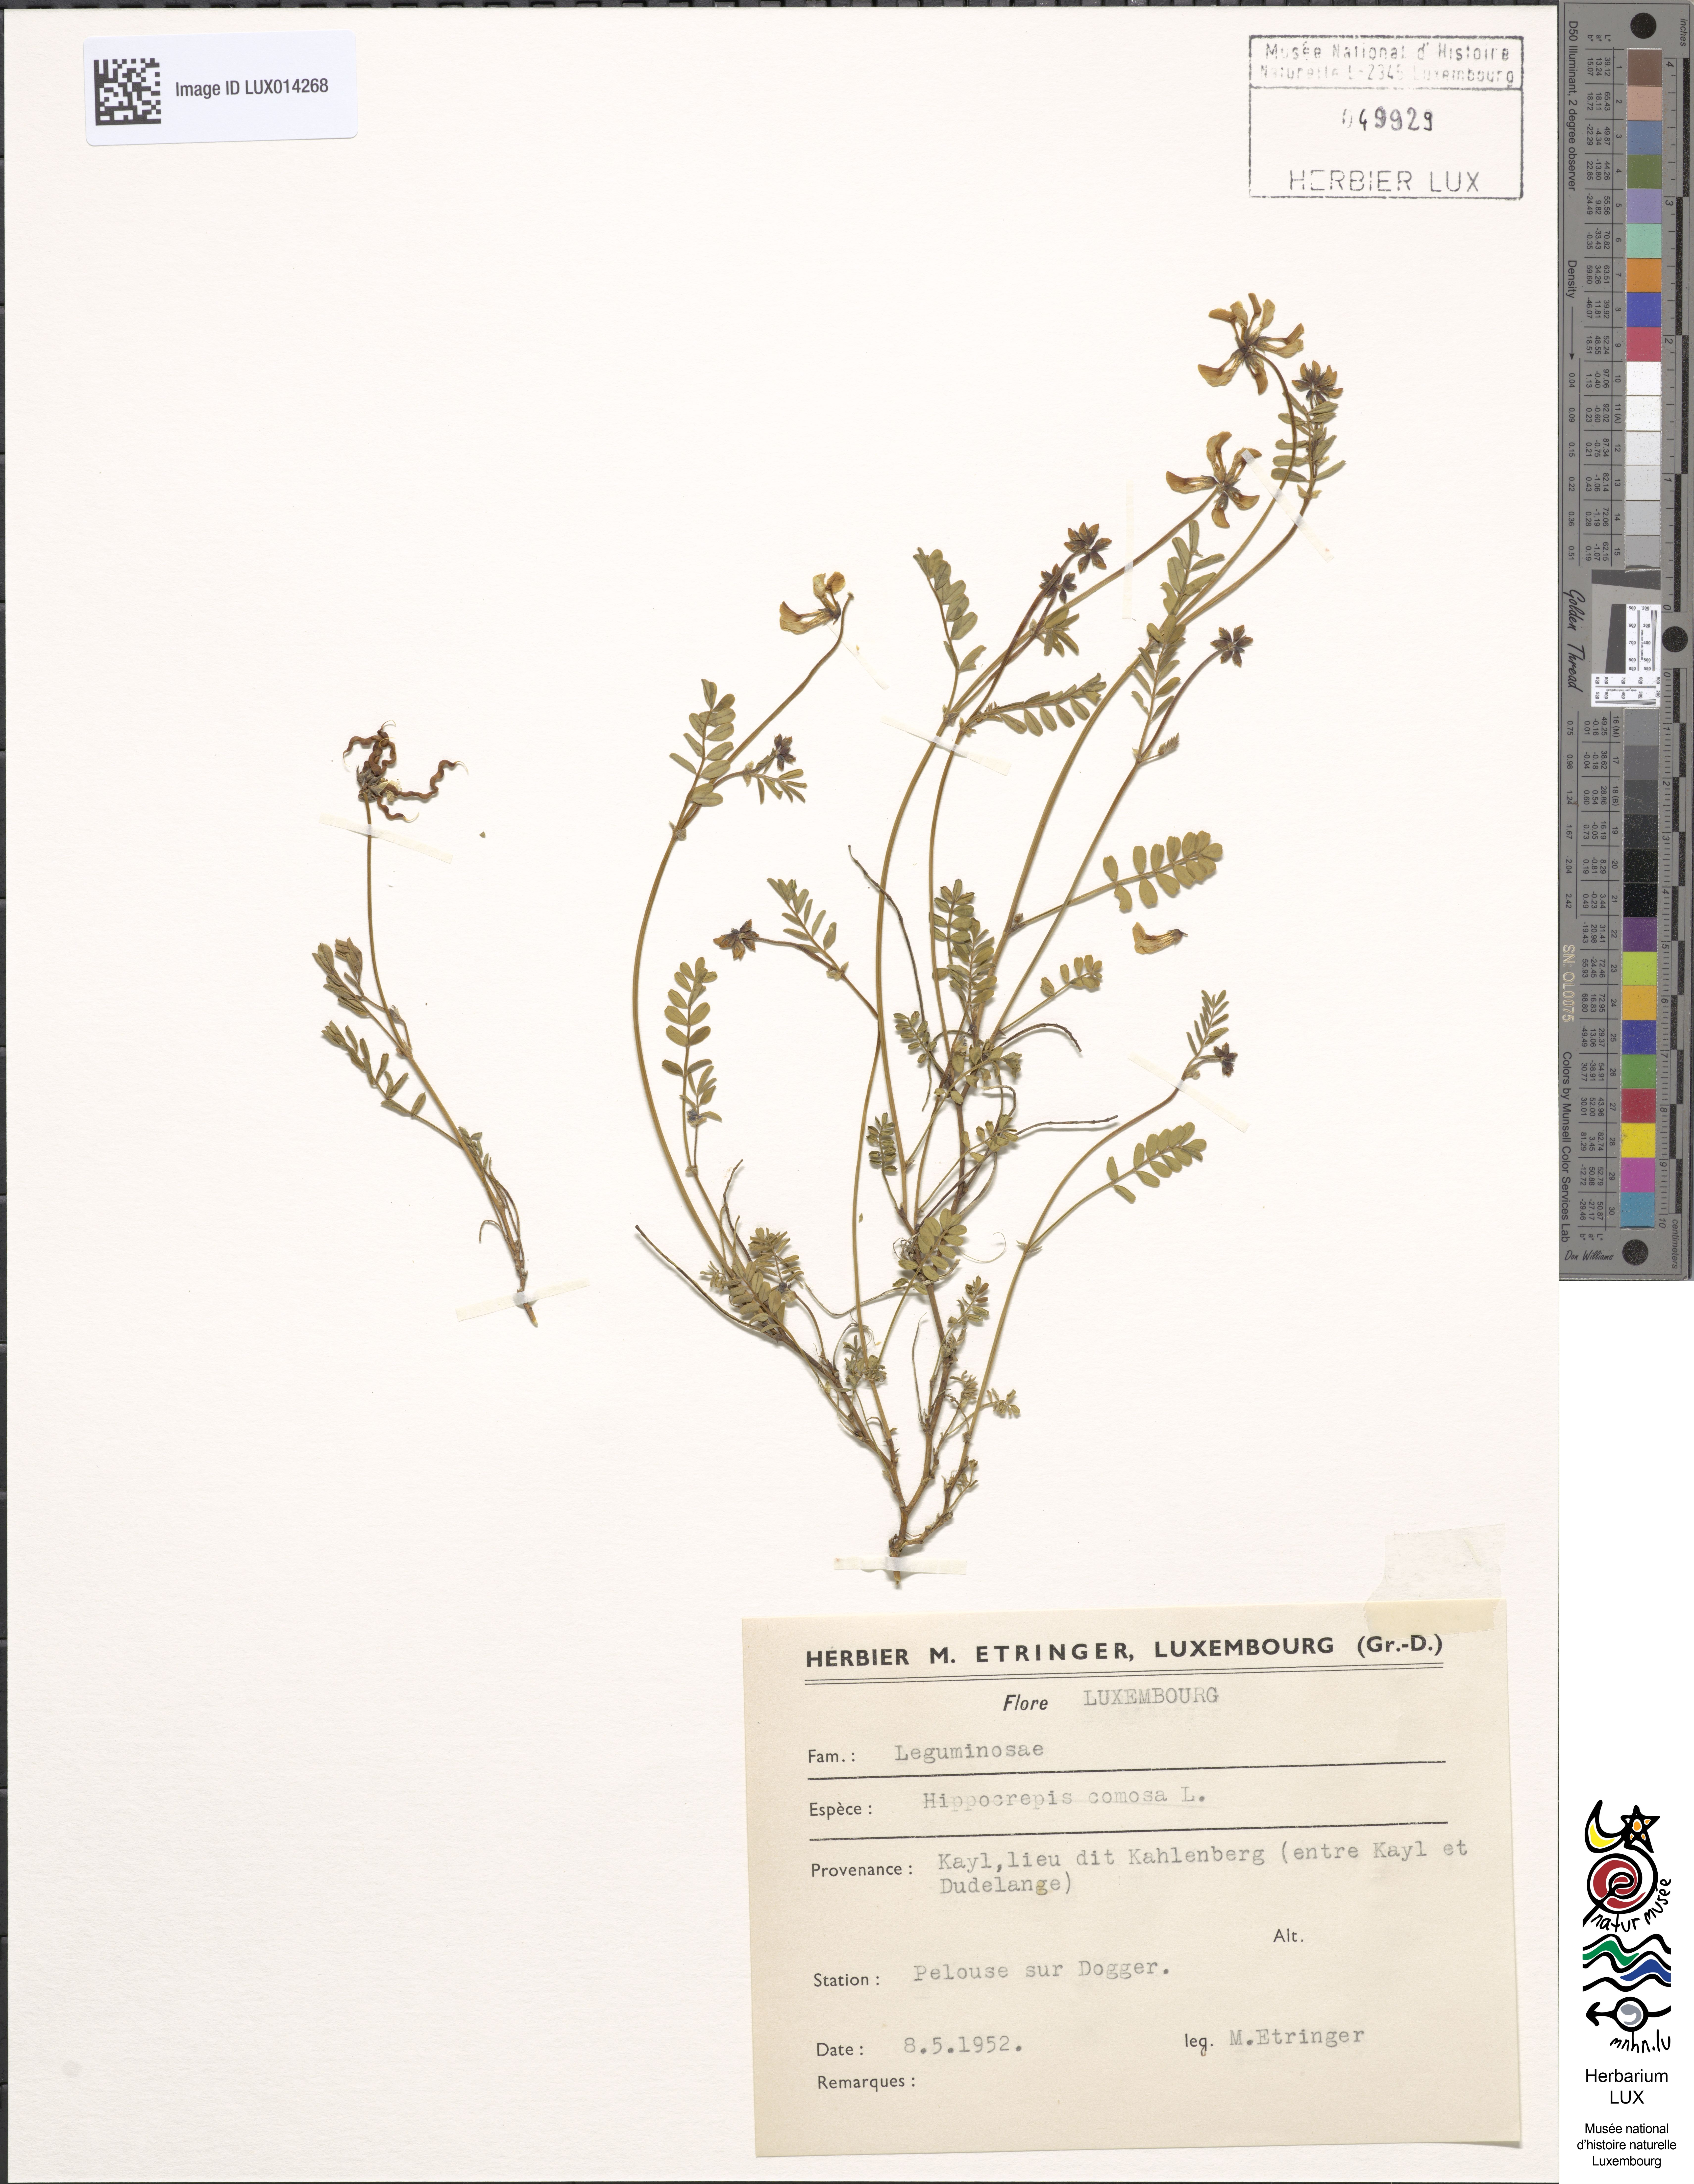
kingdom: Plantae
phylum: Tracheophyta
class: Magnoliopsida
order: Fabales
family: Fabaceae
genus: Hippocrepis
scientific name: Hippocrepis comosa
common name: Horseshoe vetch
